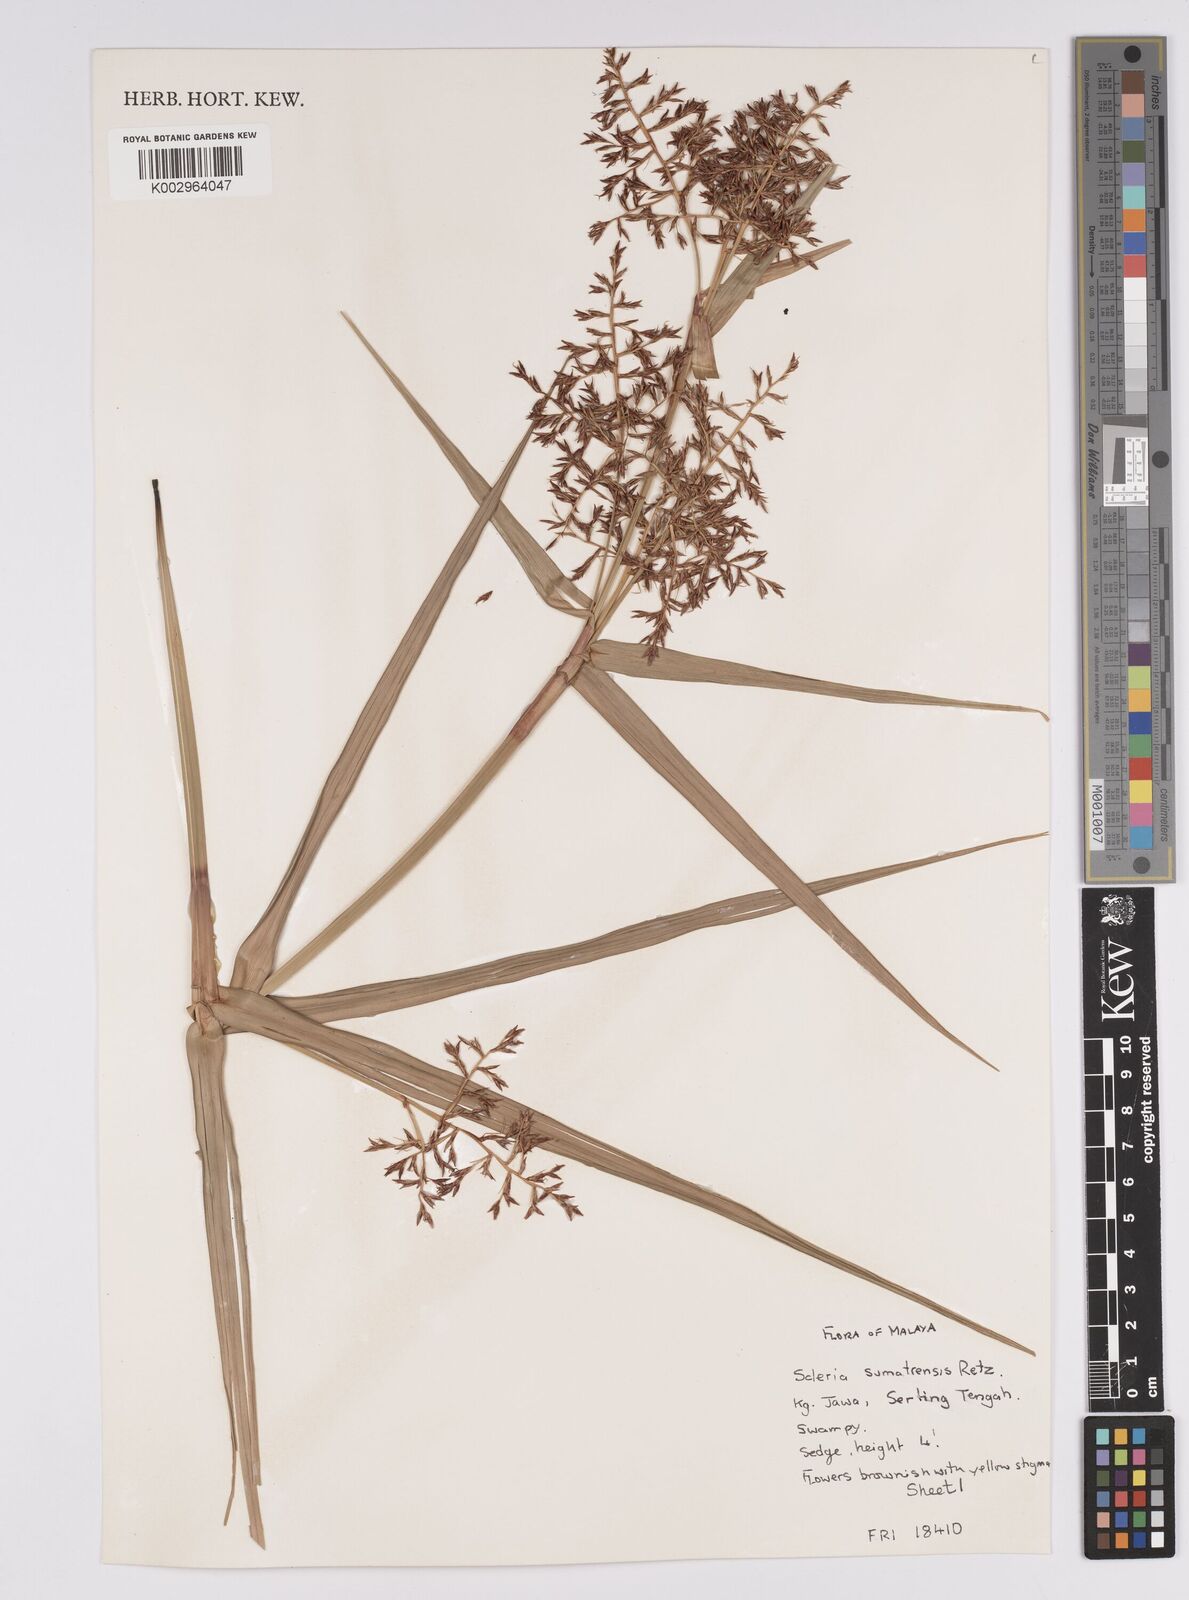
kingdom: Plantae
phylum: Tracheophyta
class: Liliopsida
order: Poales
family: Cyperaceae
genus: Scleria
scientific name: Scleria sumatrensis
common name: Sumatran scleria
